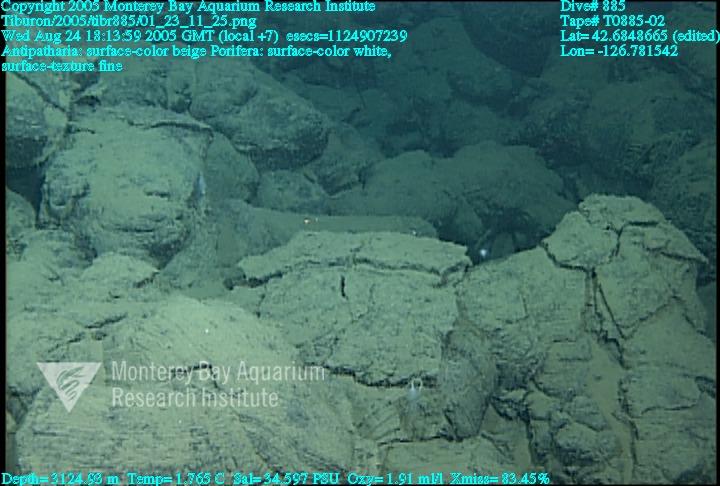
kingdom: Animalia
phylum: Porifera
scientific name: Porifera
